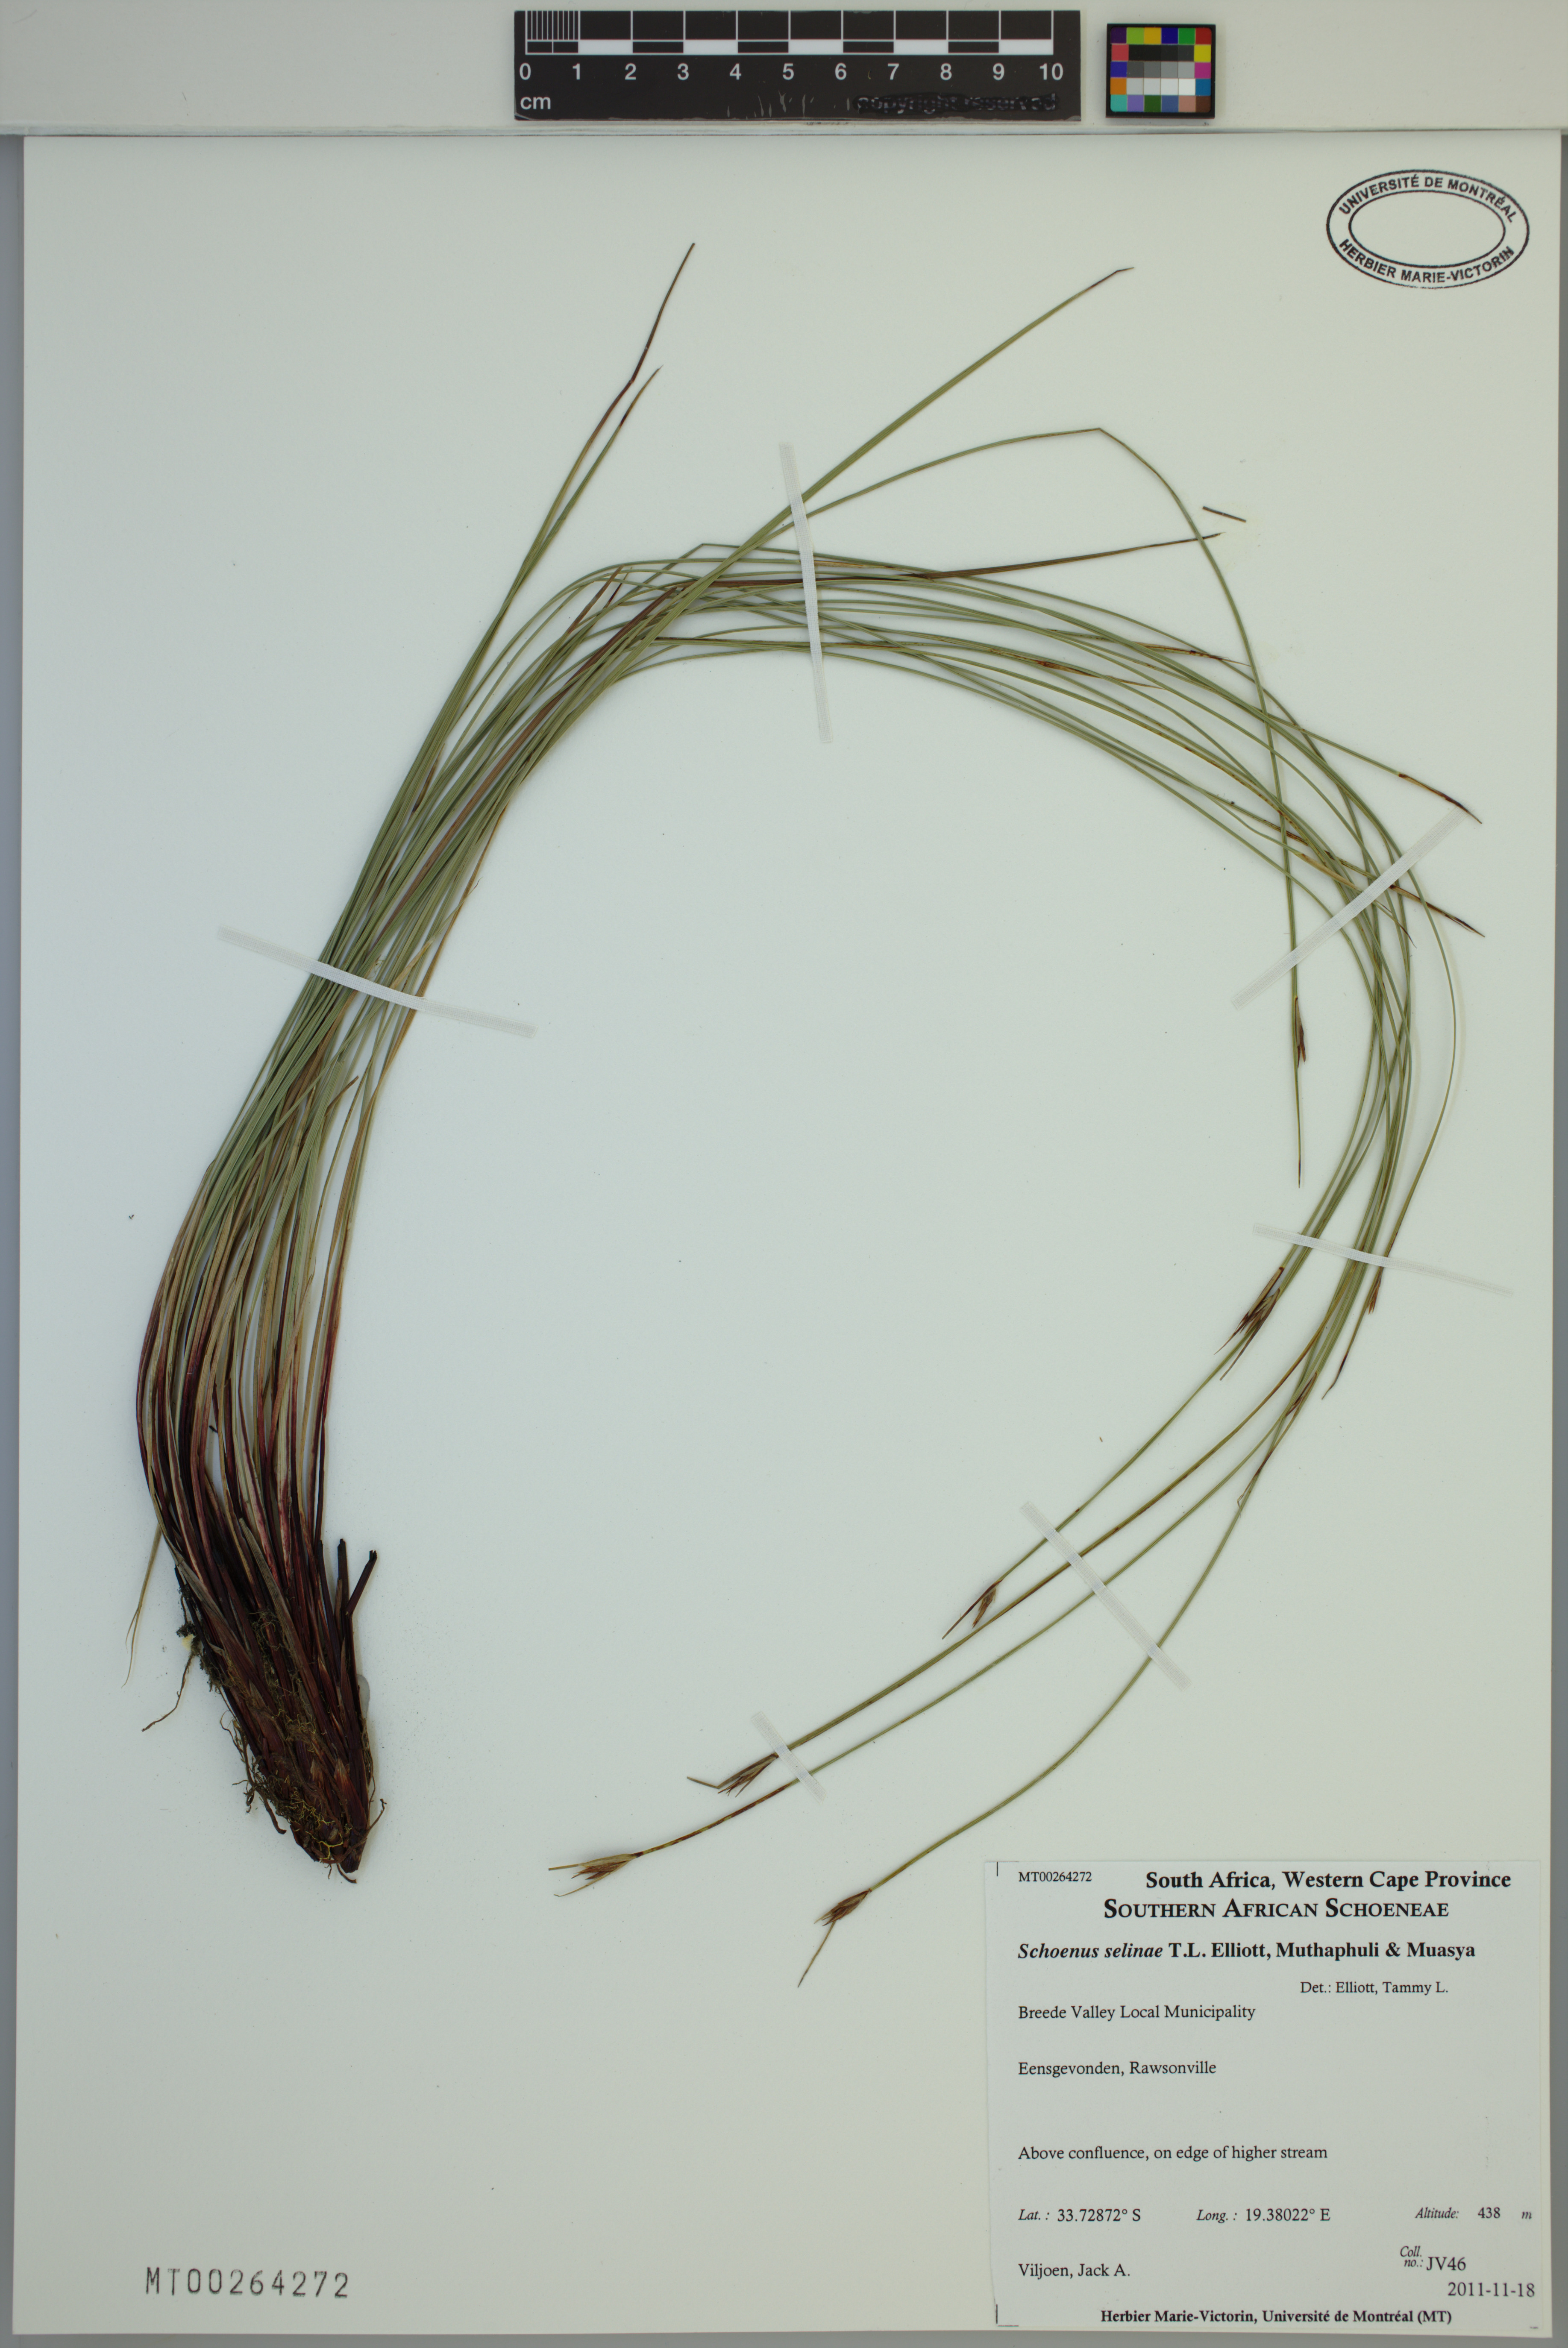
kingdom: Plantae
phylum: Tracheophyta
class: Liliopsida
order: Poales
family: Cyperaceae
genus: Schoenus
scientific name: Schoenus selinae
